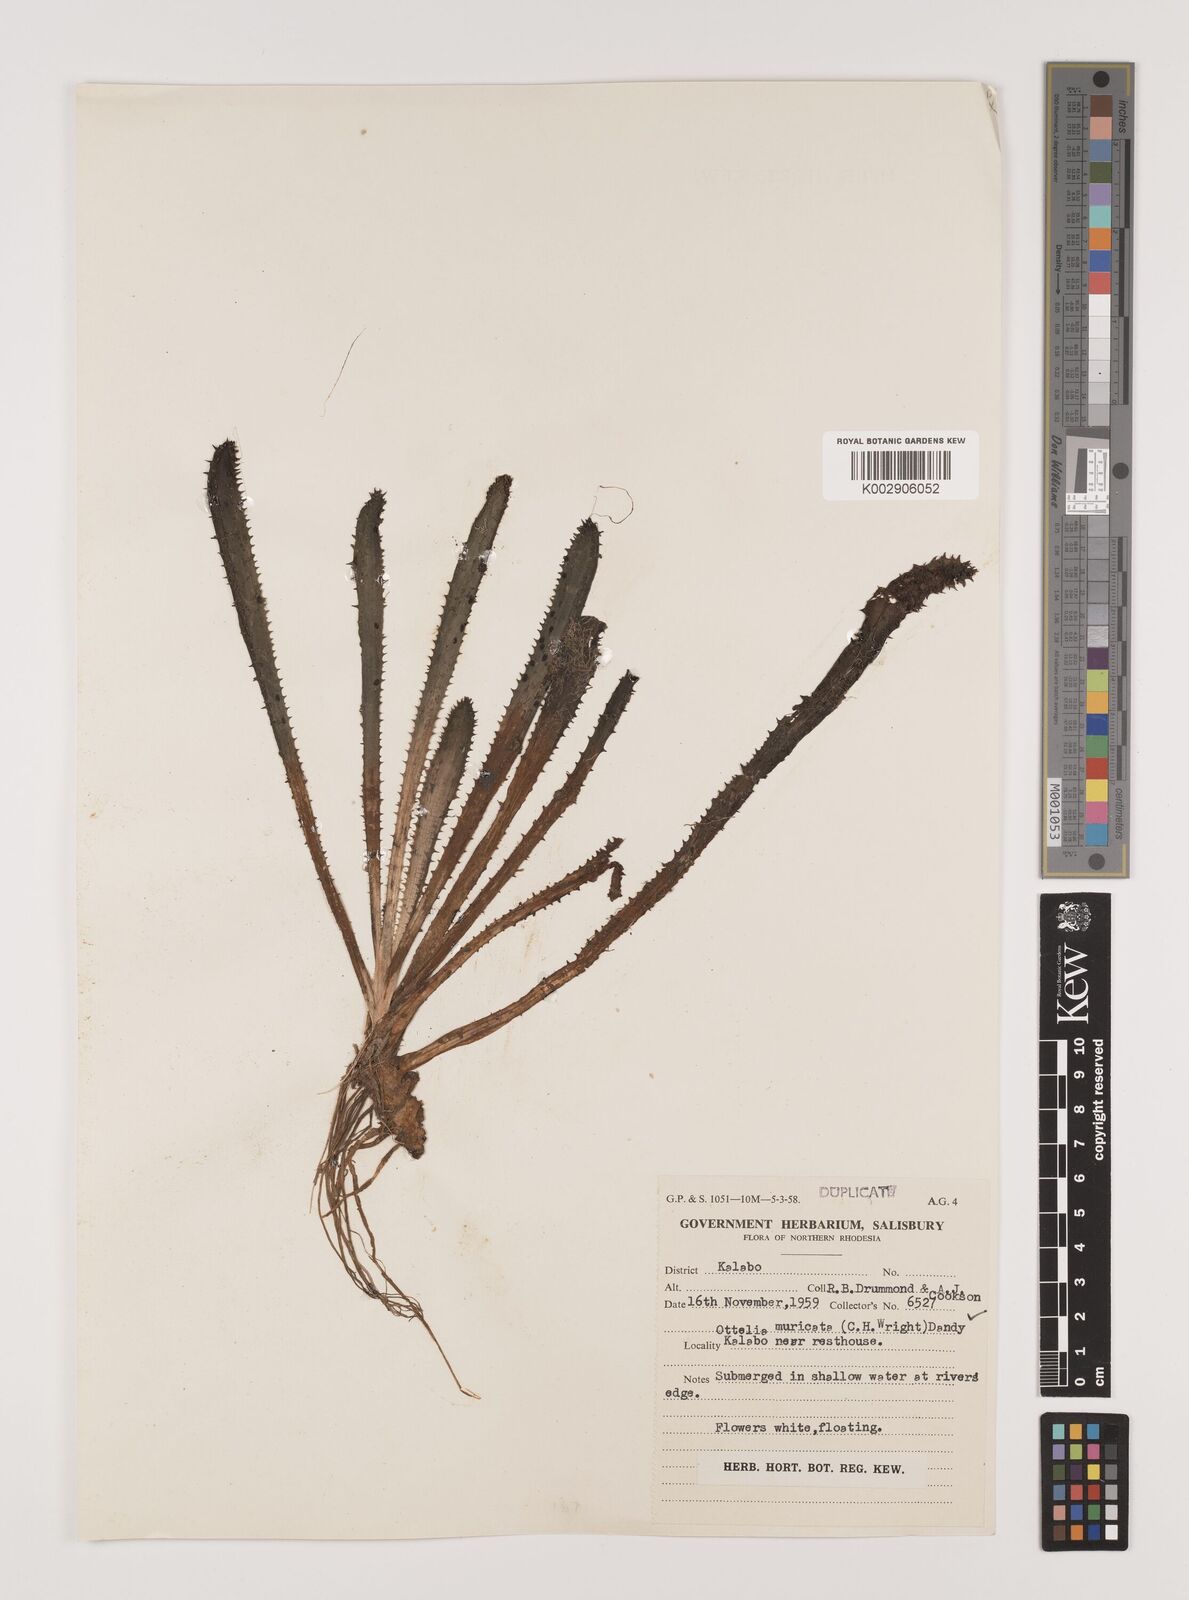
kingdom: Plantae
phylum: Tracheophyta
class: Liliopsida
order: Alismatales
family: Hydrocharitaceae
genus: Ottelia
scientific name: Ottelia muricata
